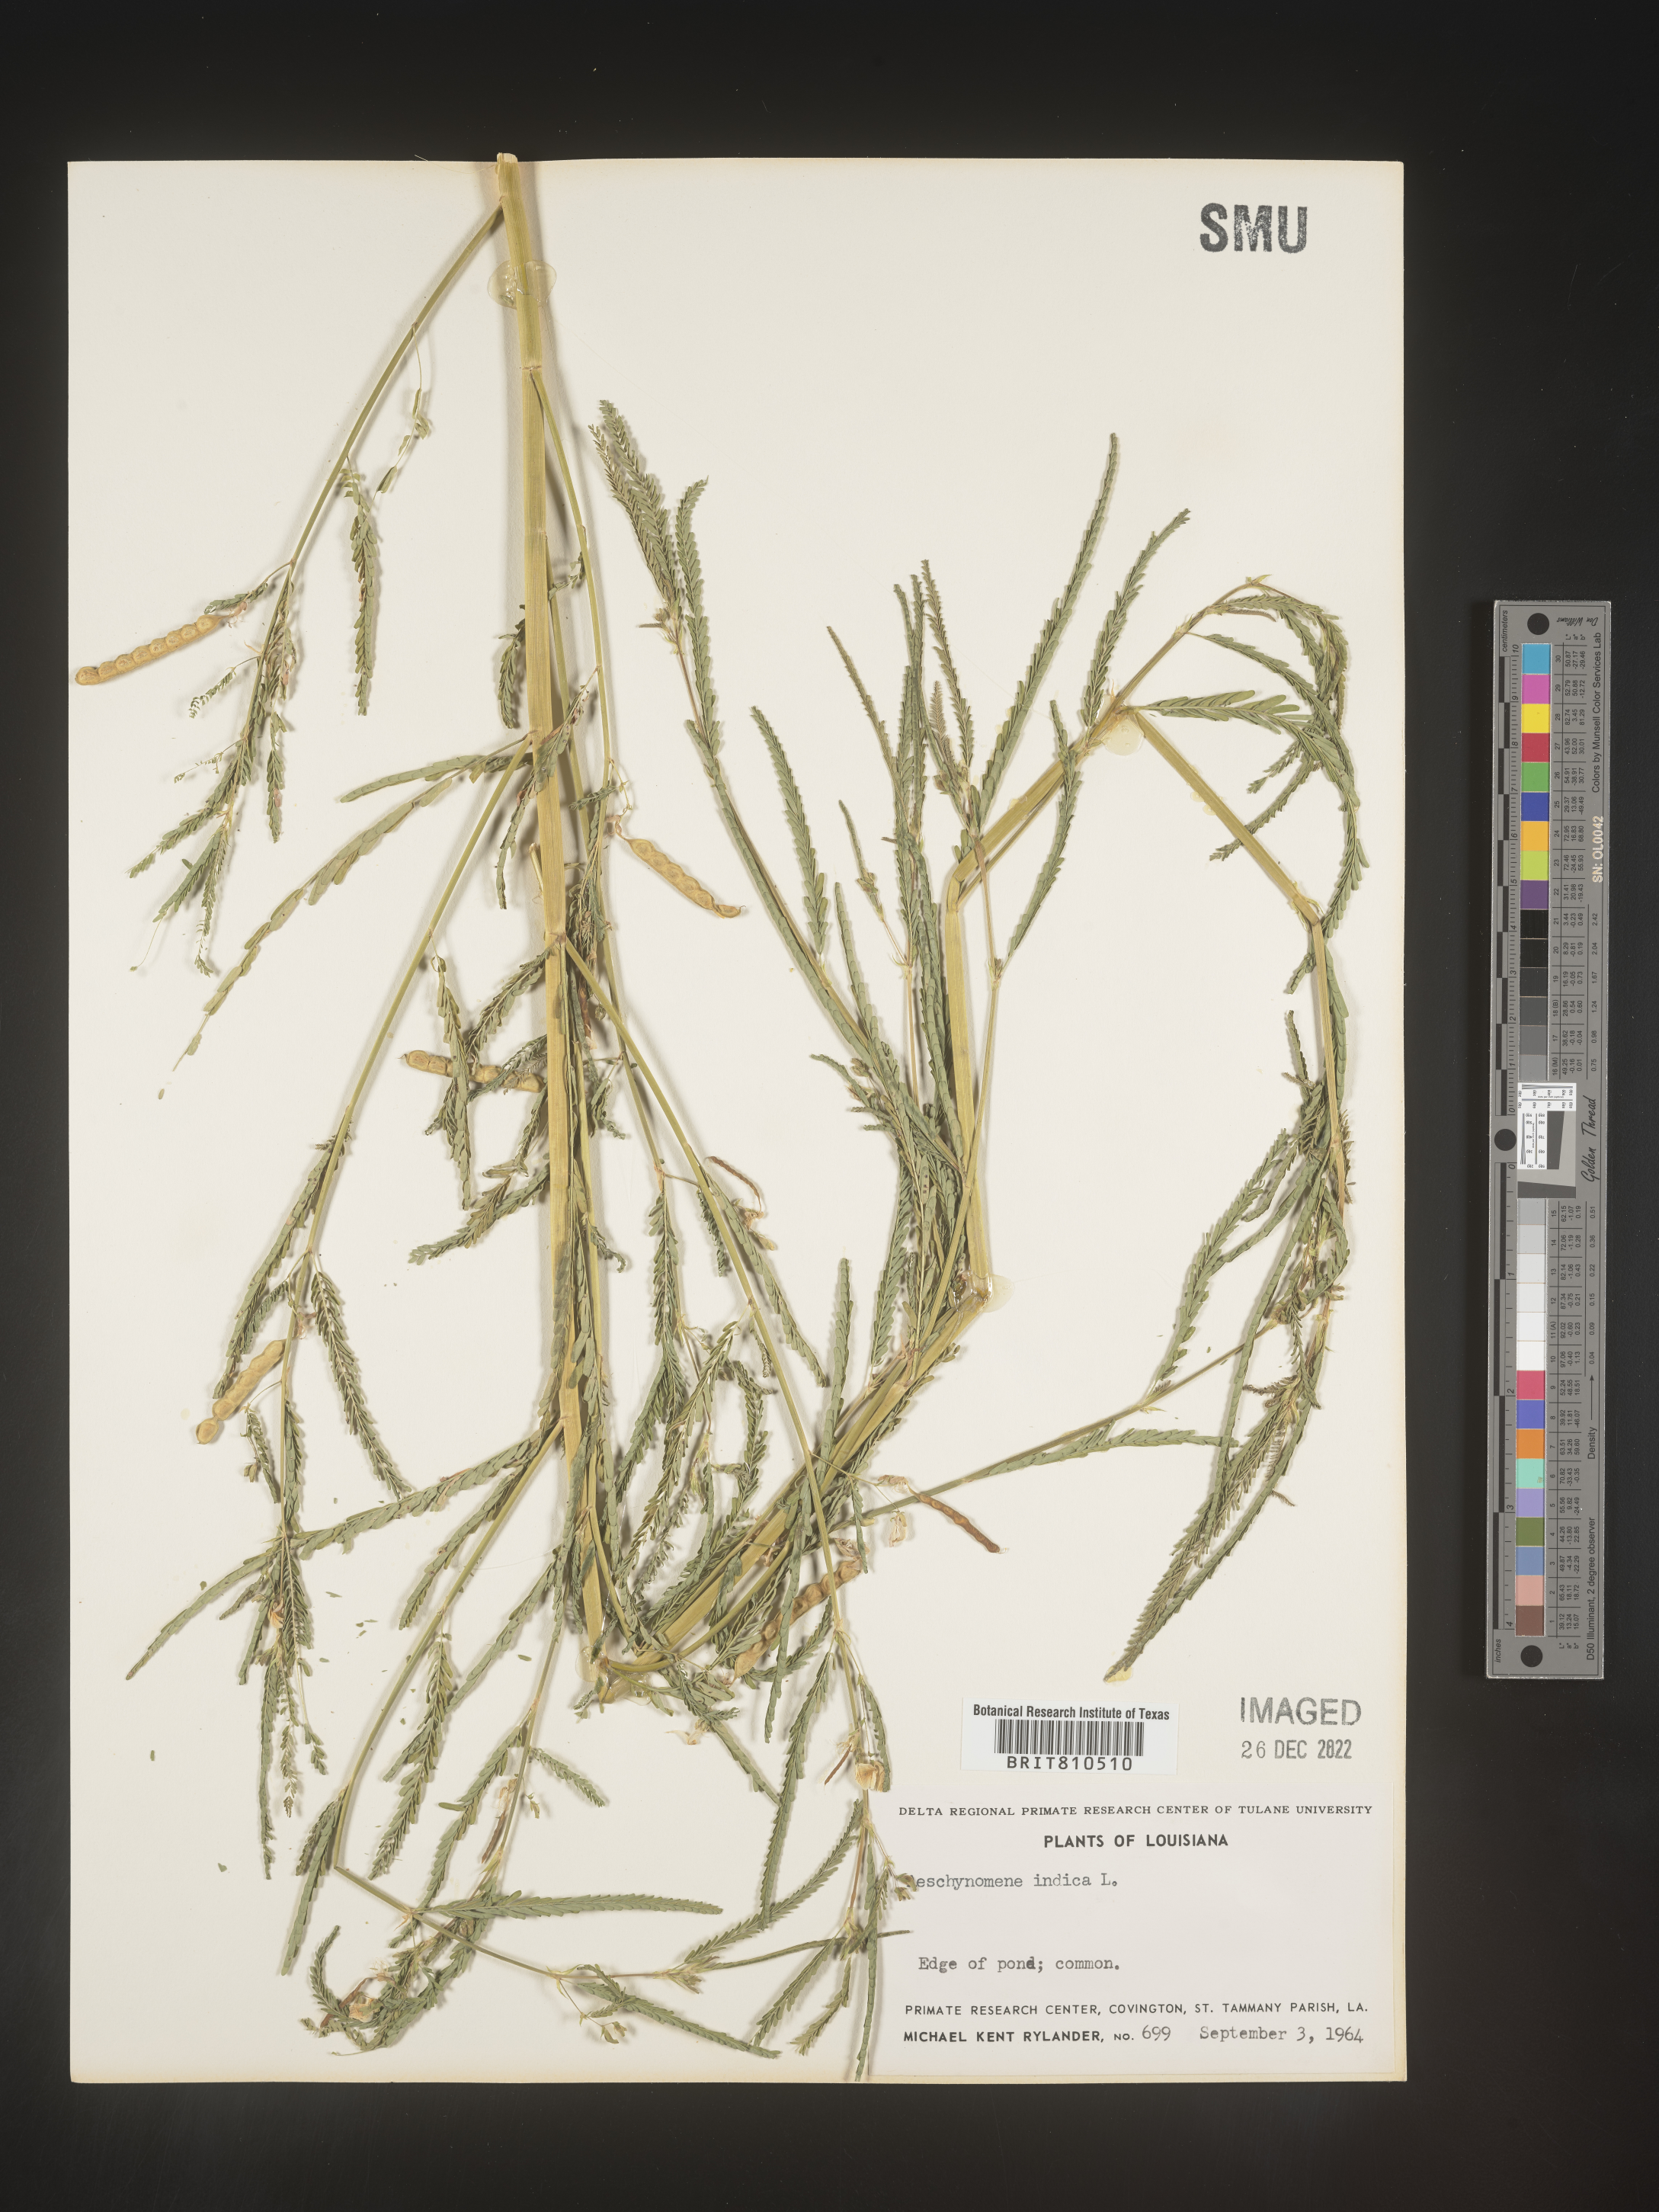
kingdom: Plantae
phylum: Tracheophyta
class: Magnoliopsida
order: Fabales
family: Fabaceae
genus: Aeschynomene
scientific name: Aeschynomene indica
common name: Indian jointvetch
